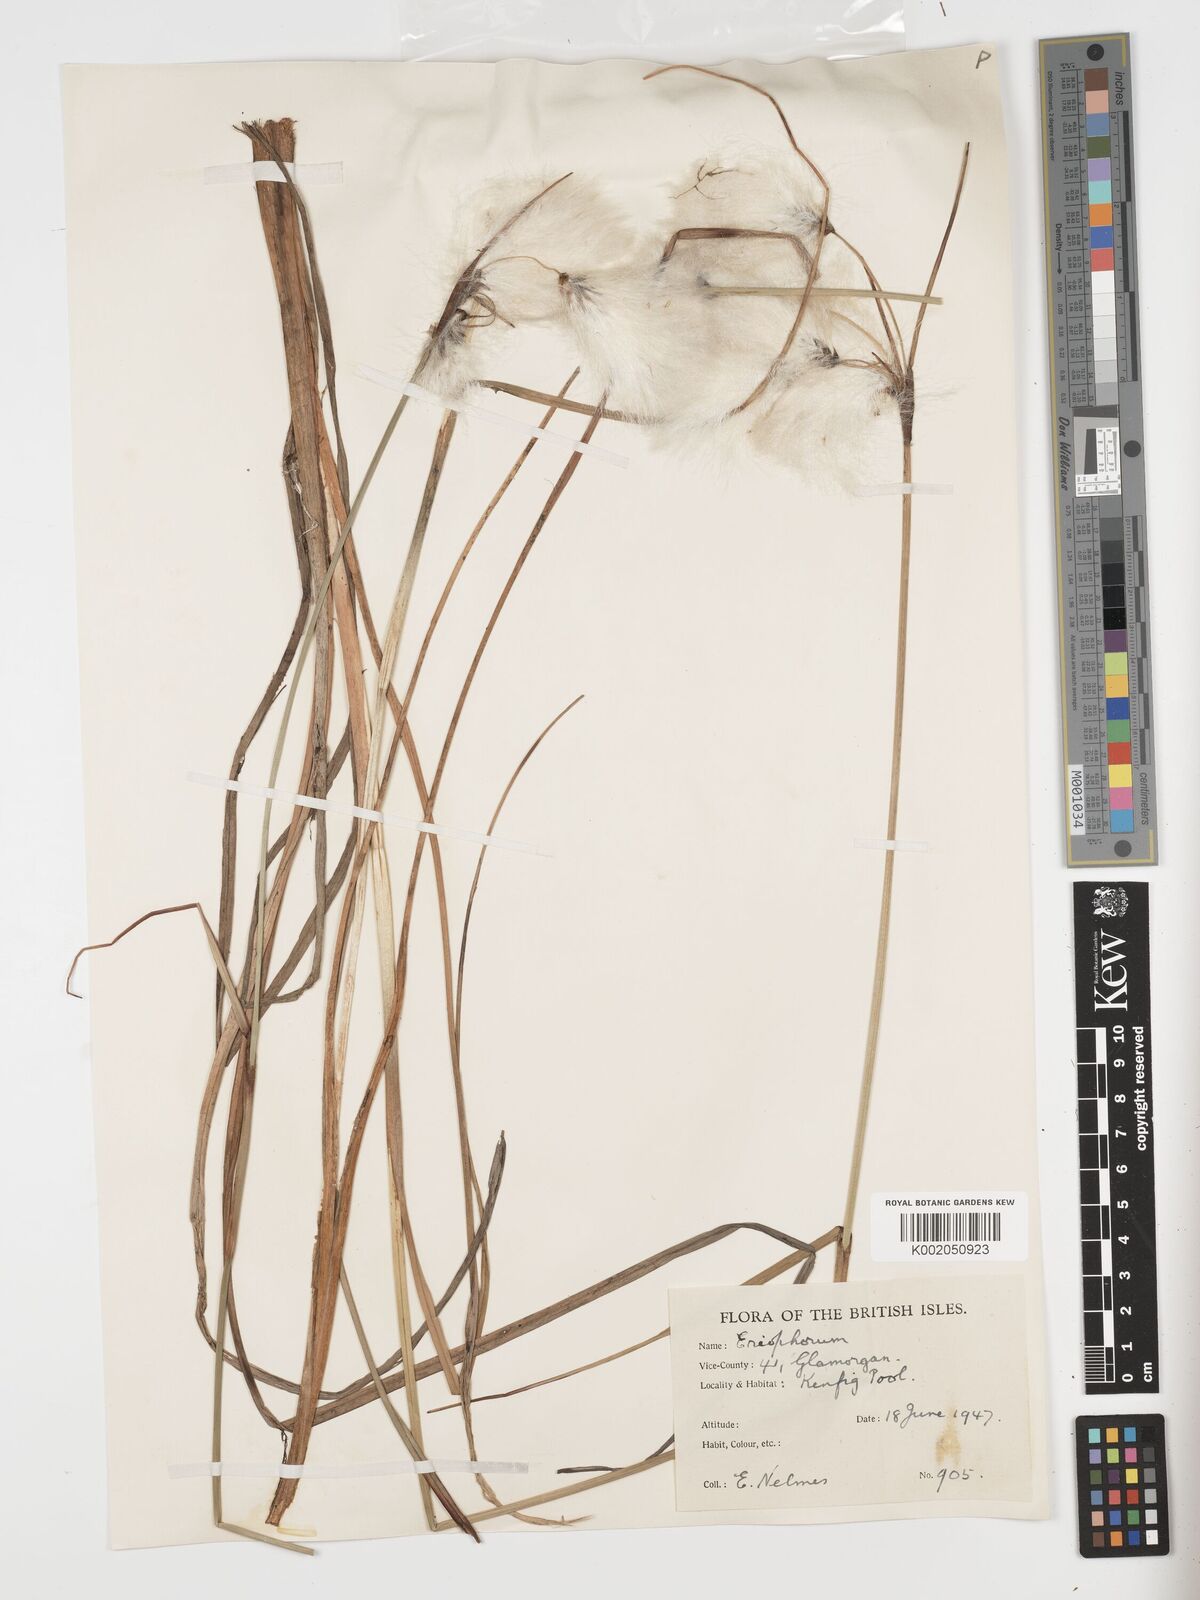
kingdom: Plantae
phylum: Tracheophyta
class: Liliopsida
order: Poales
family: Cyperaceae
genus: Eriophorum
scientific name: Eriophorum angustifolium
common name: Common cottongrass
